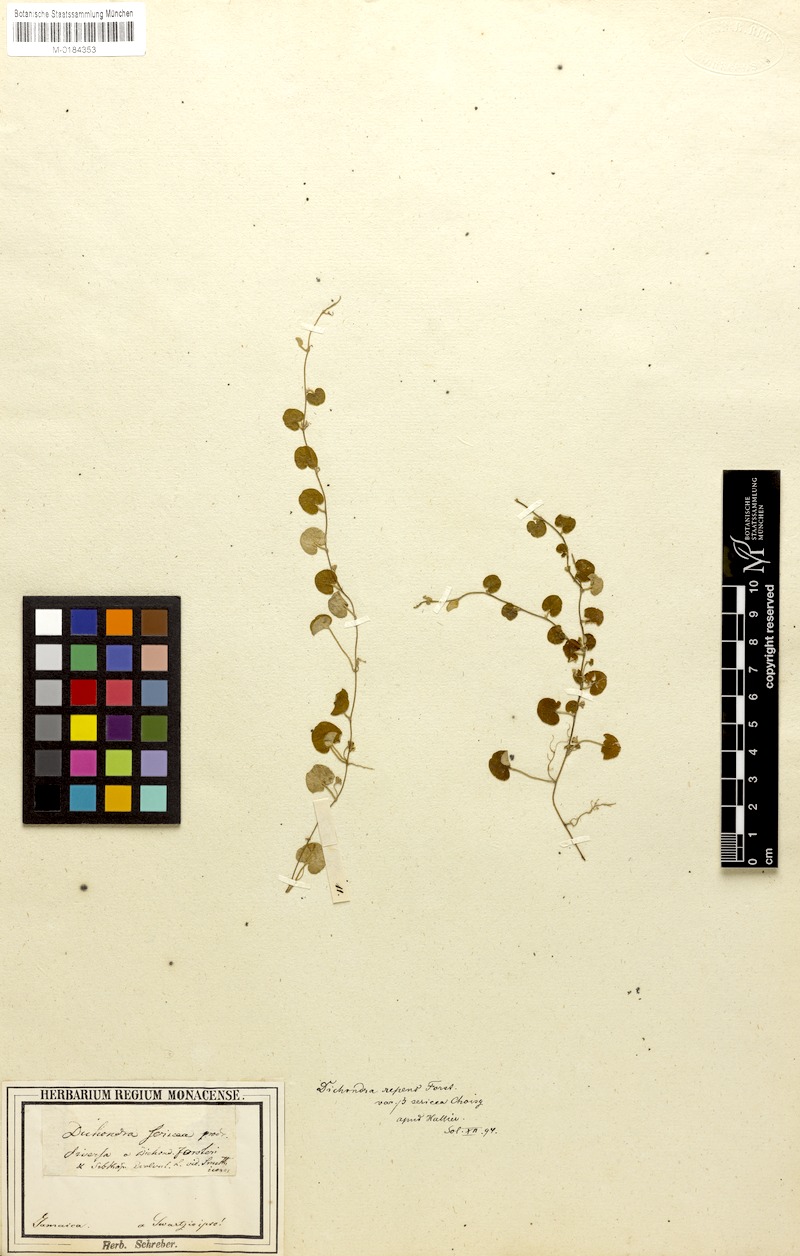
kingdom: Plantae
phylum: Tracheophyta
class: Magnoliopsida
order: Solanales
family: Convolvulaceae
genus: Dichondra
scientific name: Dichondra sericea
